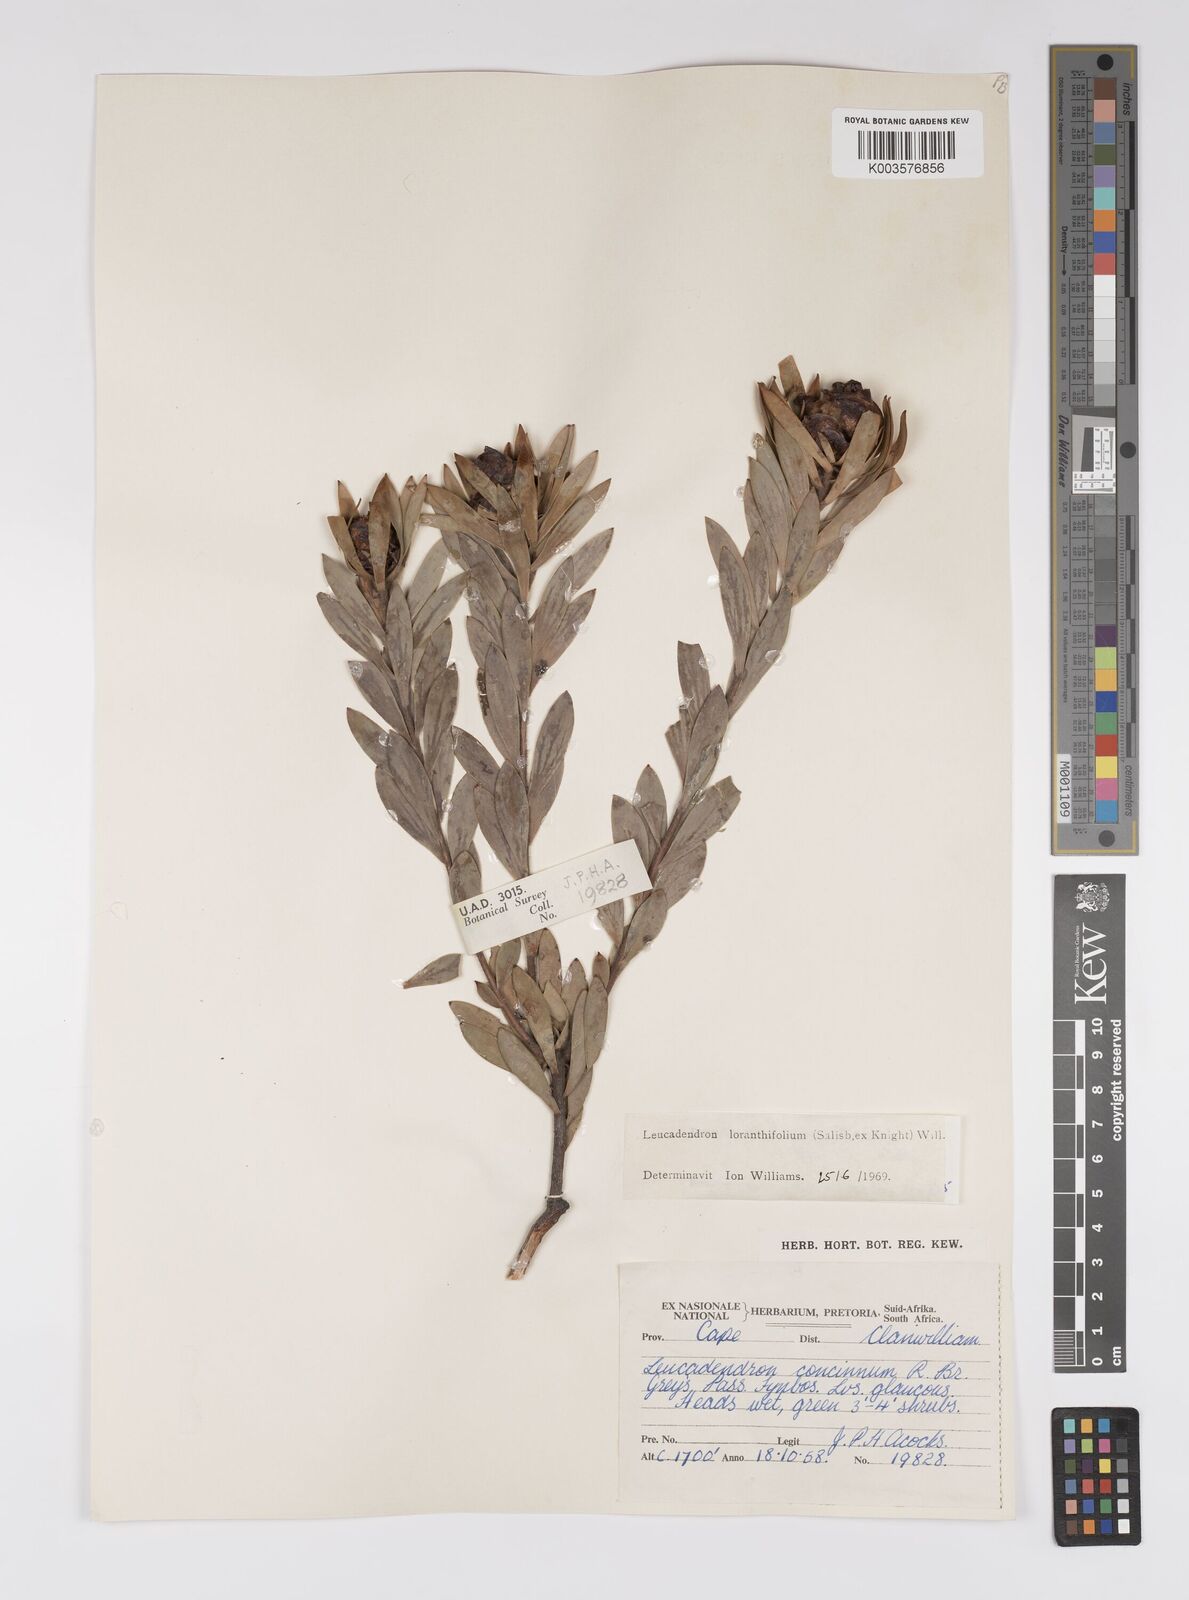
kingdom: Plantae
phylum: Tracheophyta
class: Magnoliopsida
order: Proteales
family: Proteaceae
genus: Leucadendron
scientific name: Leucadendron loranthifolium
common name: Green-flower sunbush
